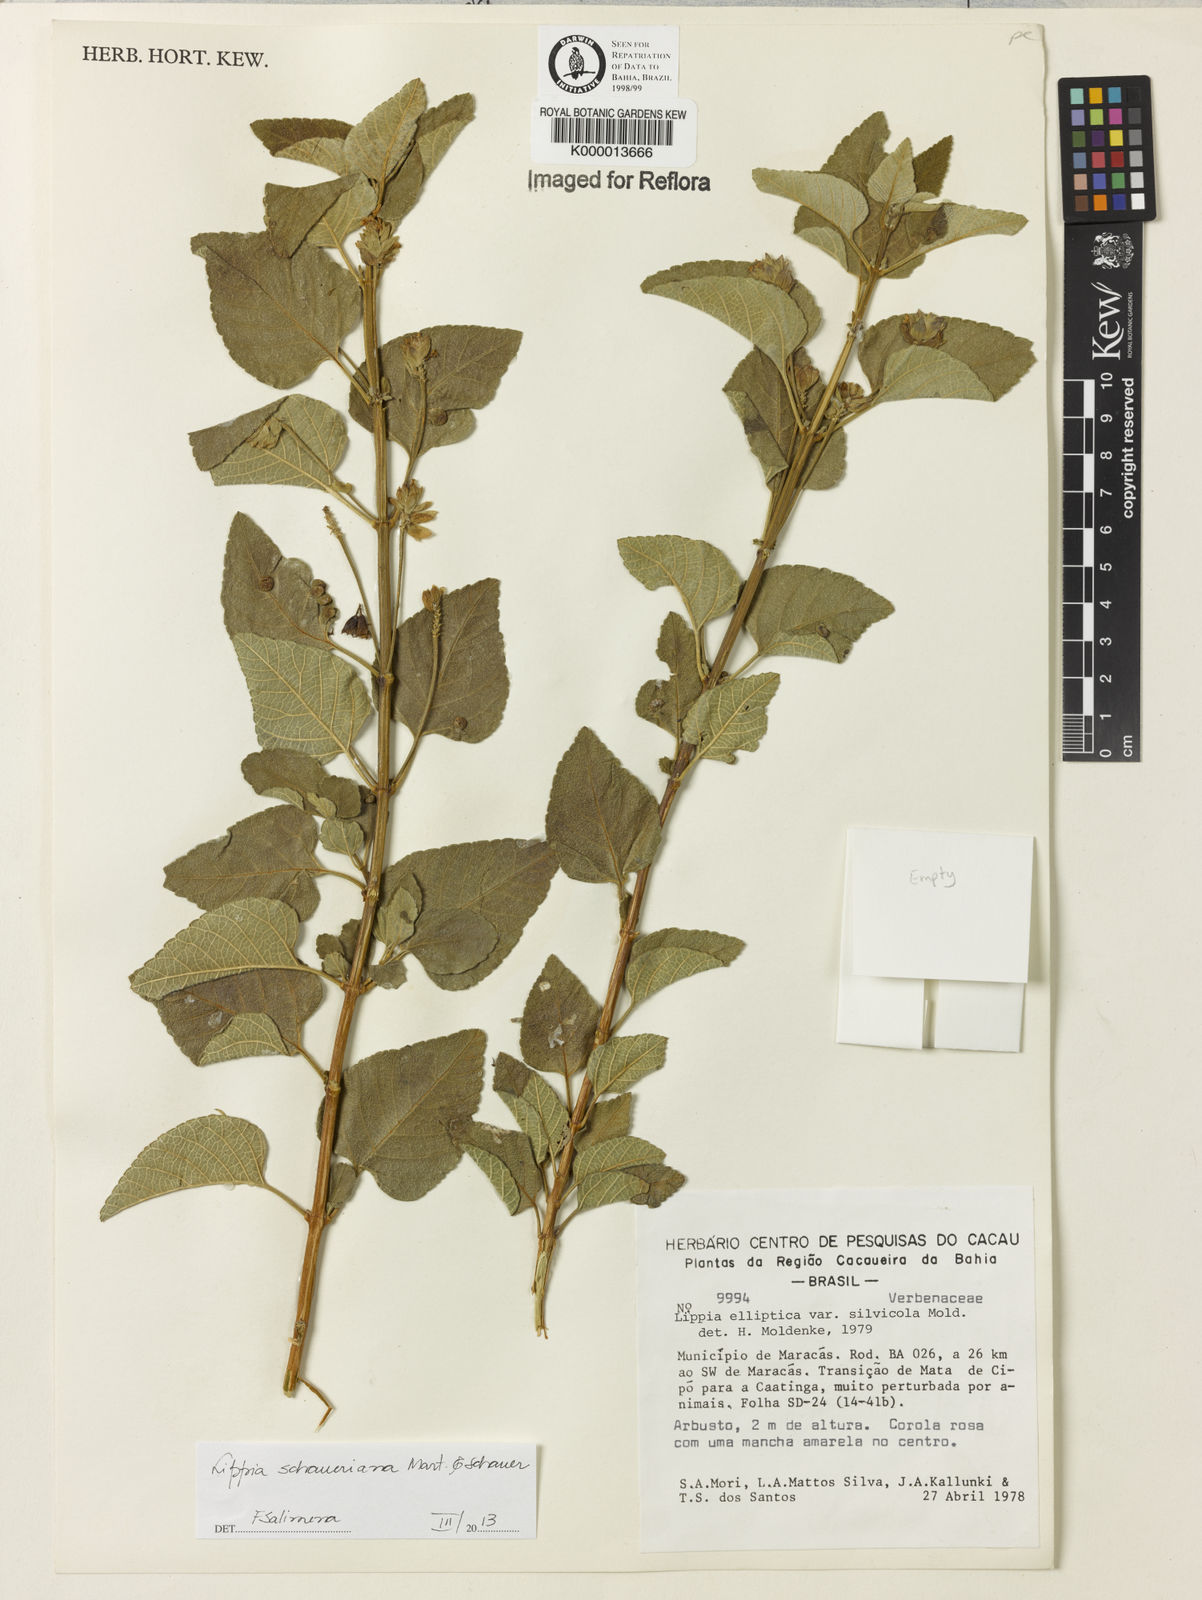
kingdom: Plantae
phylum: Tracheophyta
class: Magnoliopsida
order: Lamiales
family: Verbenaceae
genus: Lippia
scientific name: Lippia subracemosa
